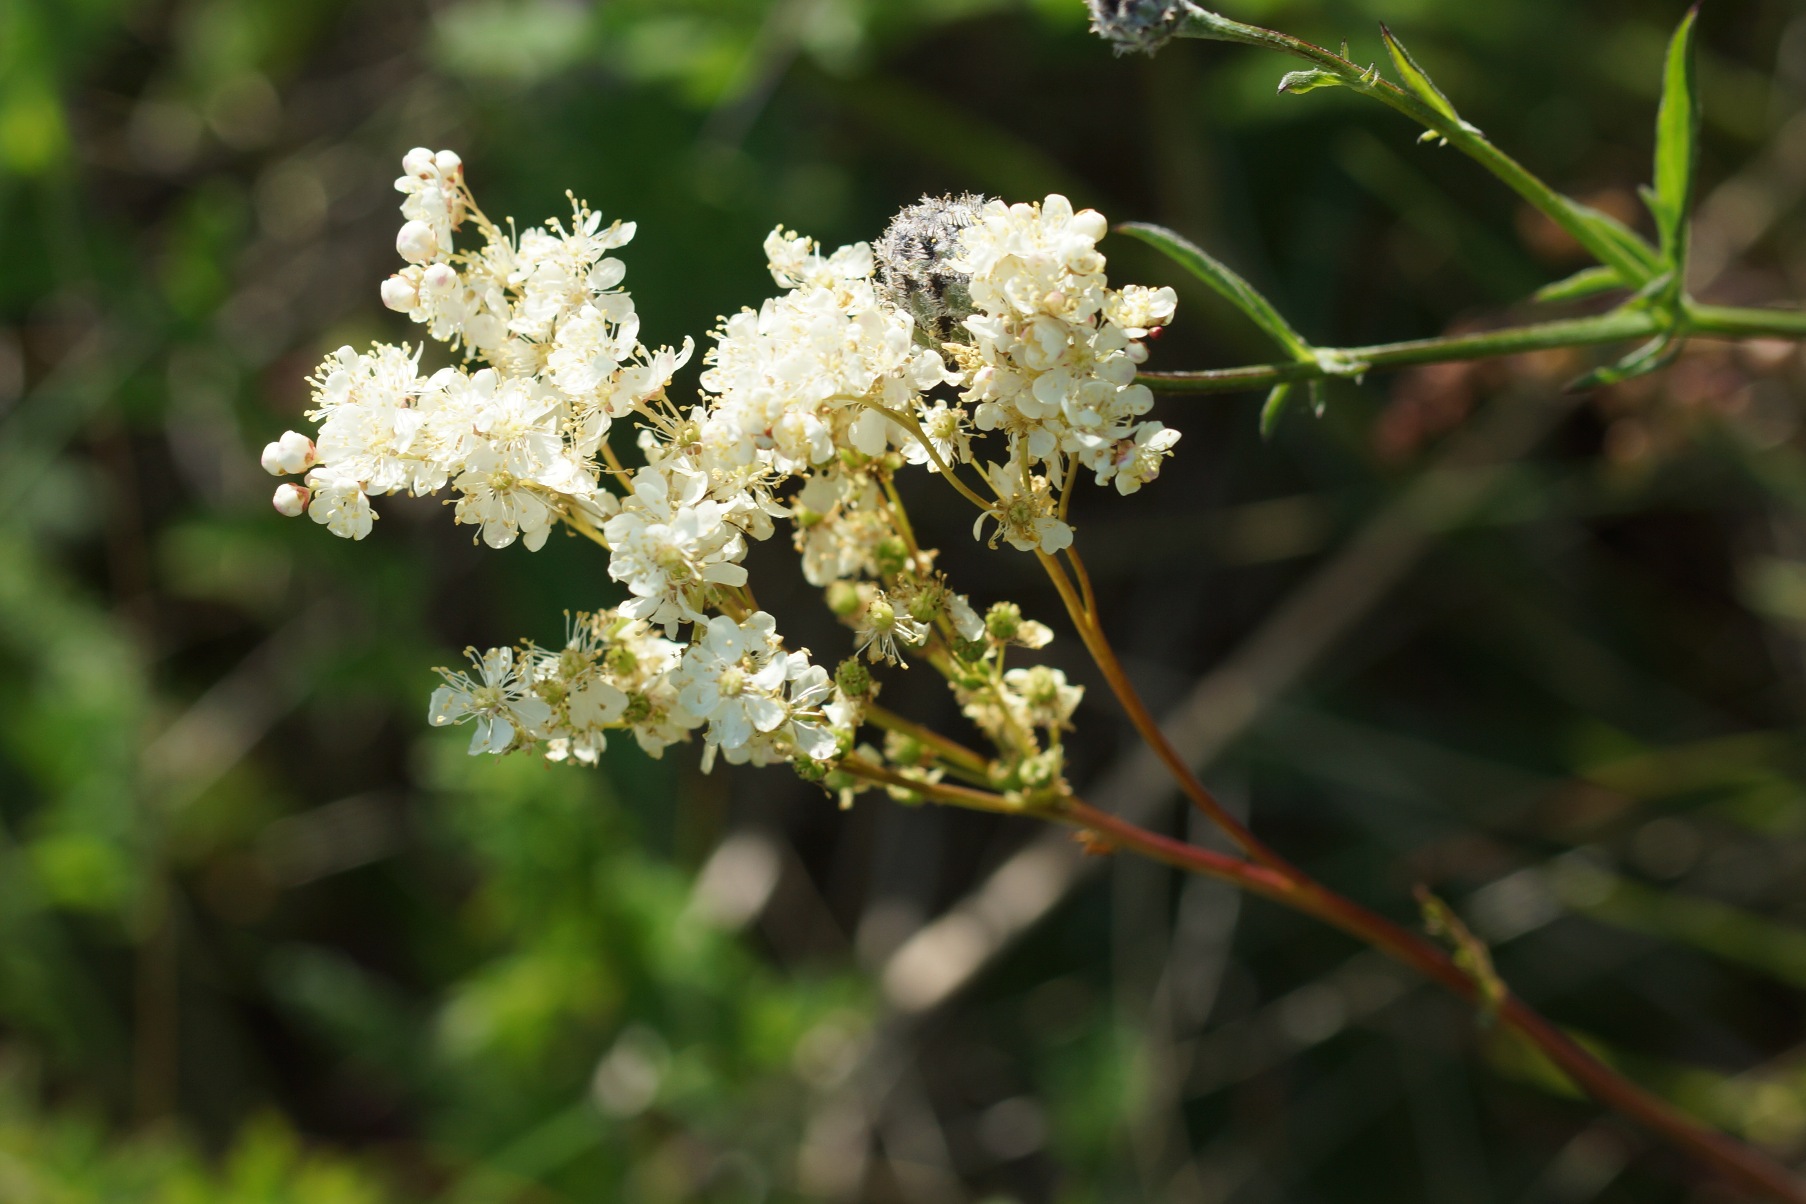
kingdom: Plantae
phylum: Tracheophyta
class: Magnoliopsida
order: Rosales
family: Rosaceae
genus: Filipendula
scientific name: Filipendula vulgaris
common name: Knoldet mjødurt
